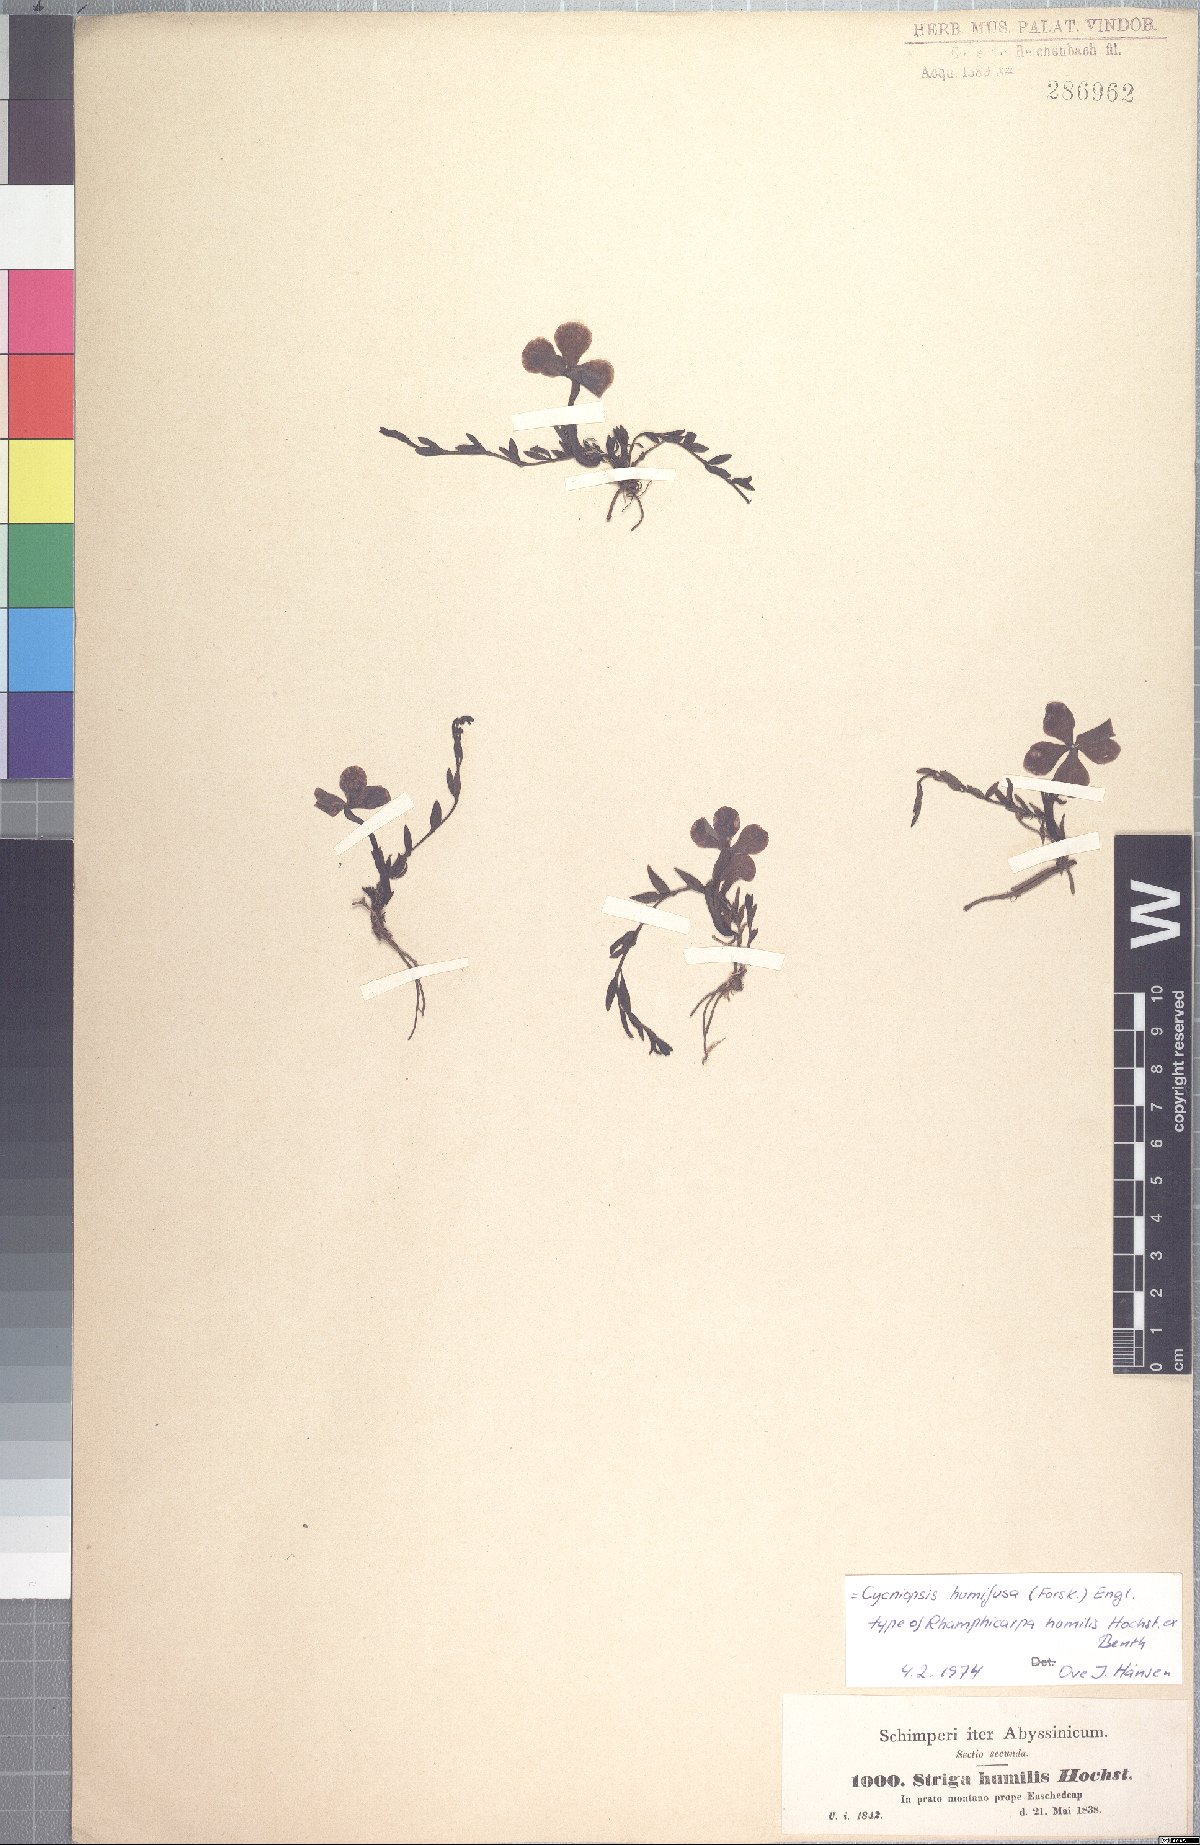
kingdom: Plantae
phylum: Tracheophyta
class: Magnoliopsida
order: Lamiales
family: Orobanchaceae
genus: Cycniopsis
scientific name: Cycniopsis humifusa
